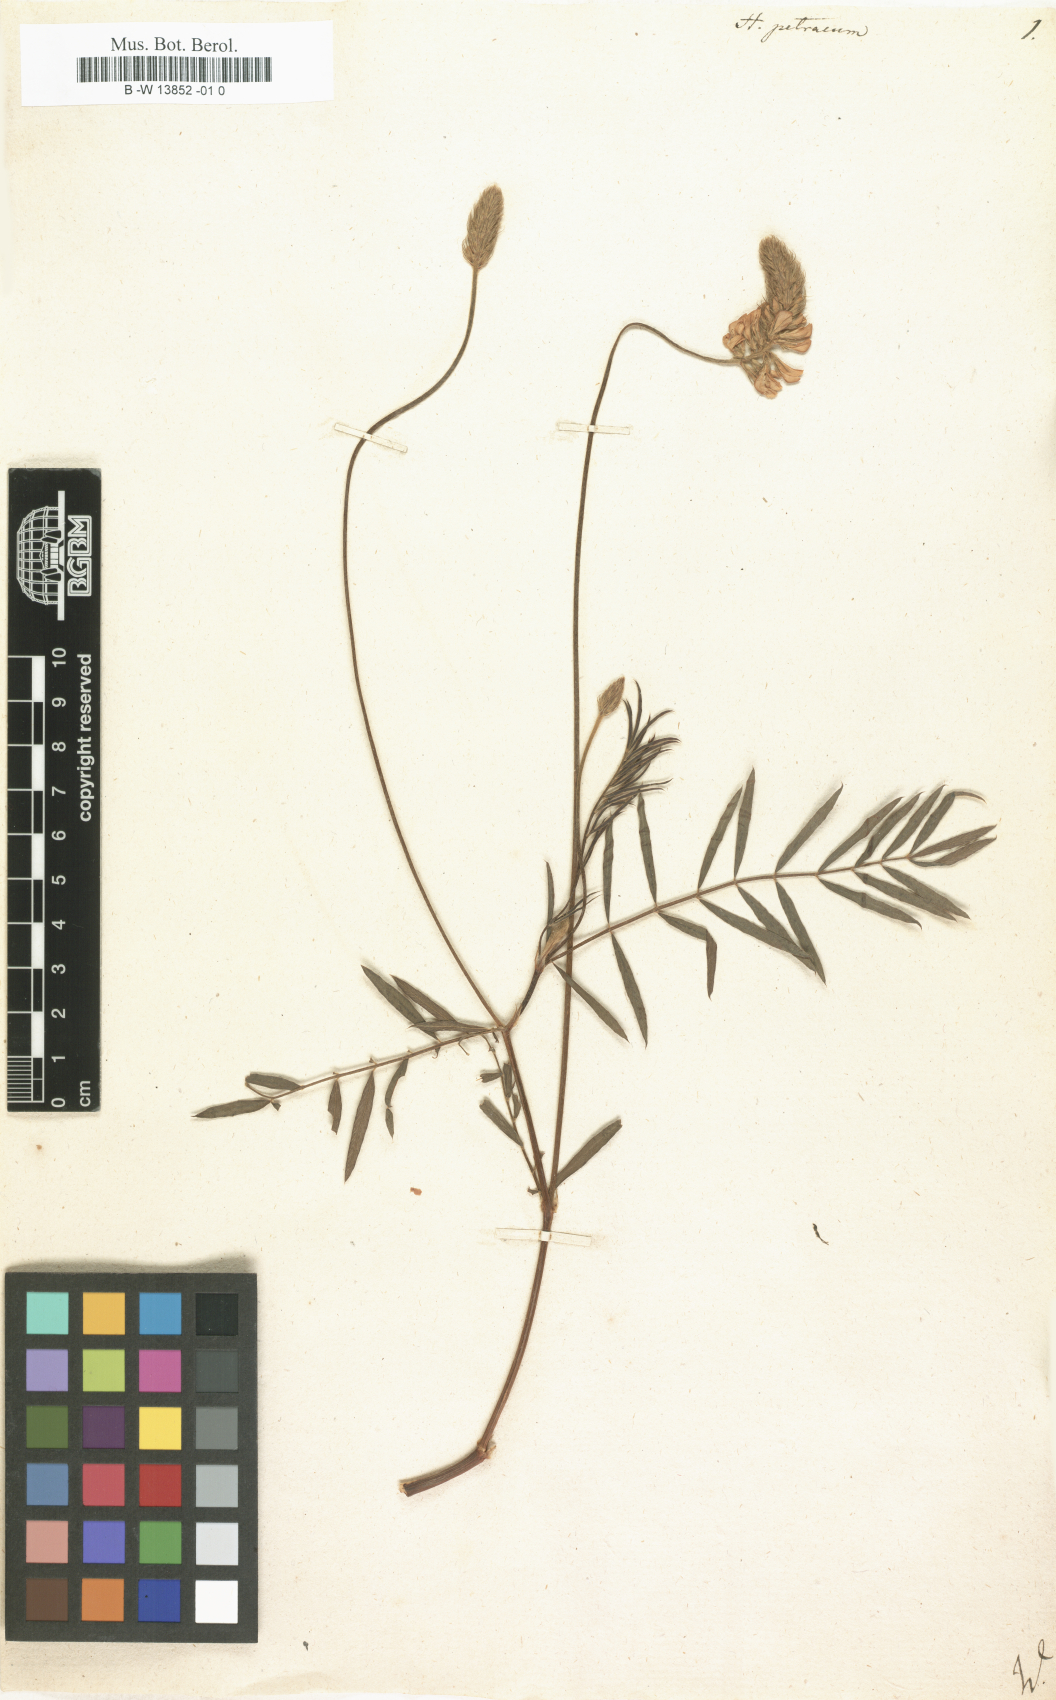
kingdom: Plantae
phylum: Tracheophyta
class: Magnoliopsida
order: Fabales
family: Fabaceae
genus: Onobrychis
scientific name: Onobrychis petraea
